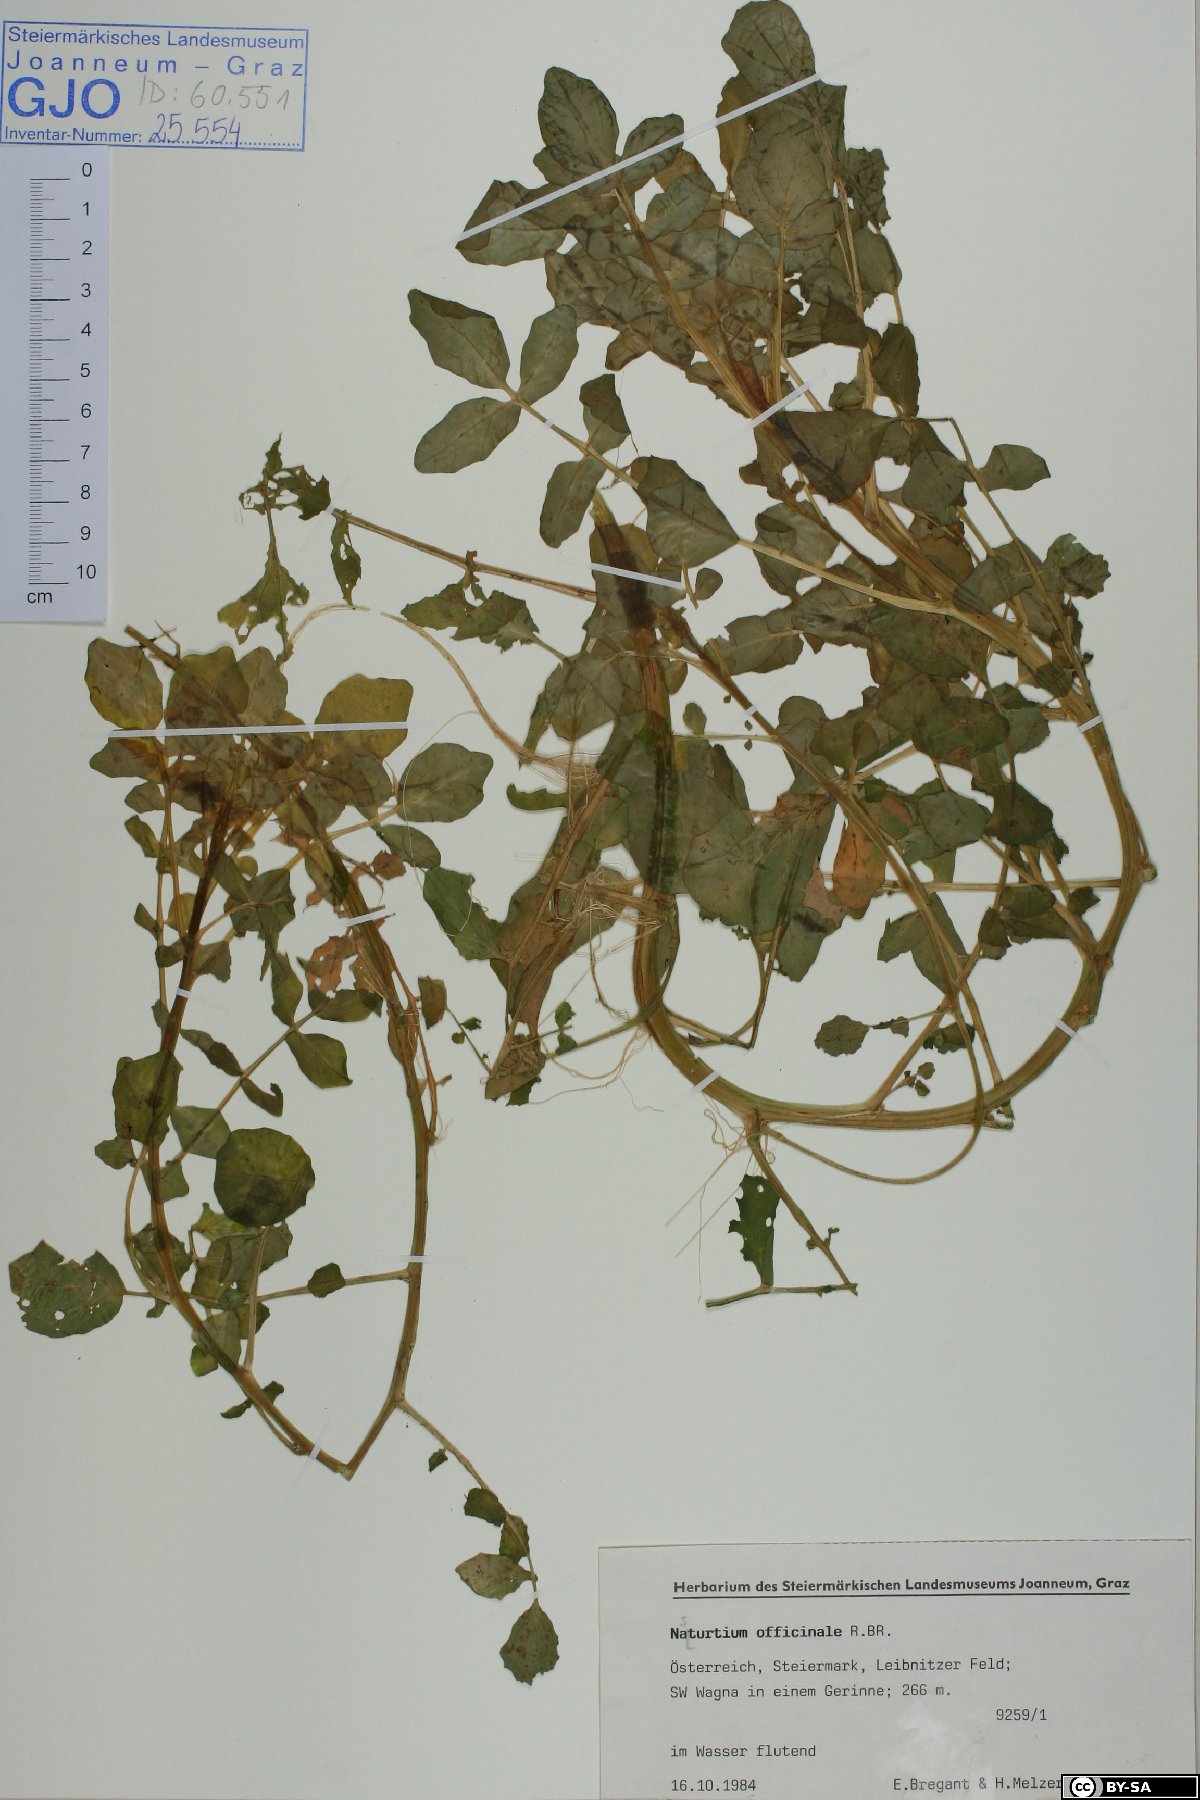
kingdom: Plantae
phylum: Tracheophyta
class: Magnoliopsida
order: Brassicales
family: Brassicaceae
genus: Nasturtium
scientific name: Nasturtium officinale
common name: Watercress
